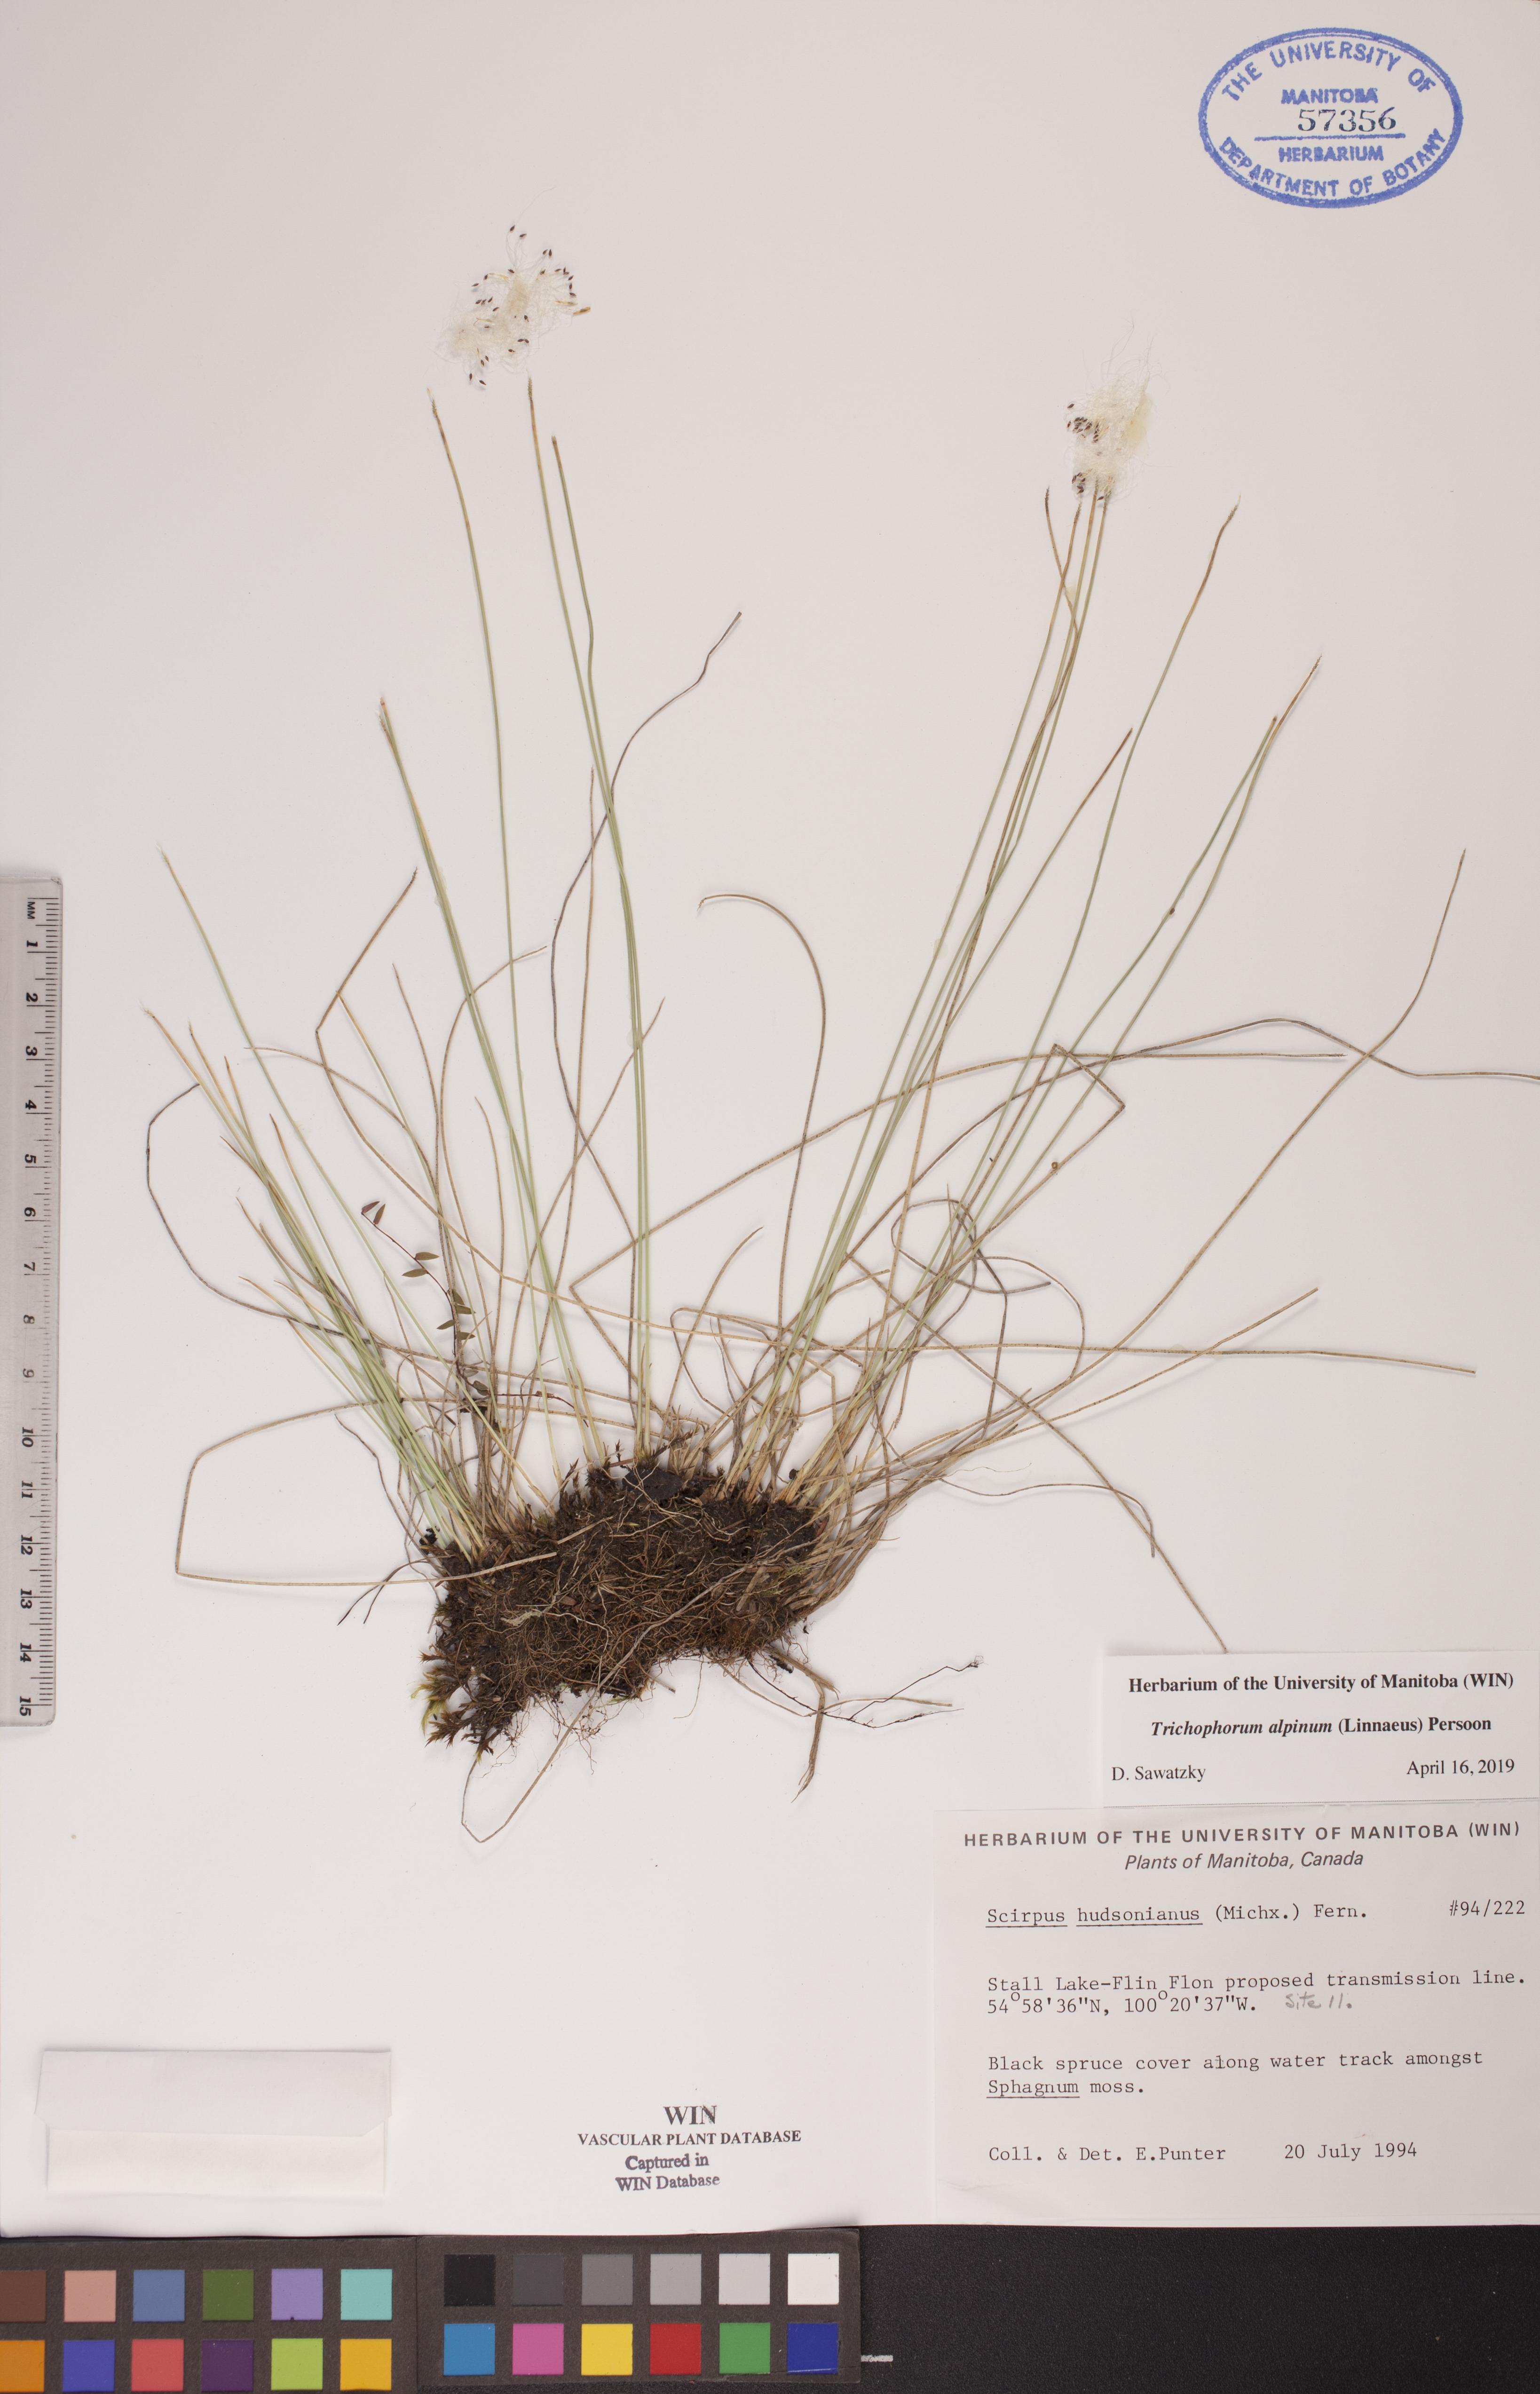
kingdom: Plantae
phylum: Tracheophyta
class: Liliopsida
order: Poales
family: Cyperaceae
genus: Trichophorum
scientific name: Trichophorum alpinum
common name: Alpine bulrush
